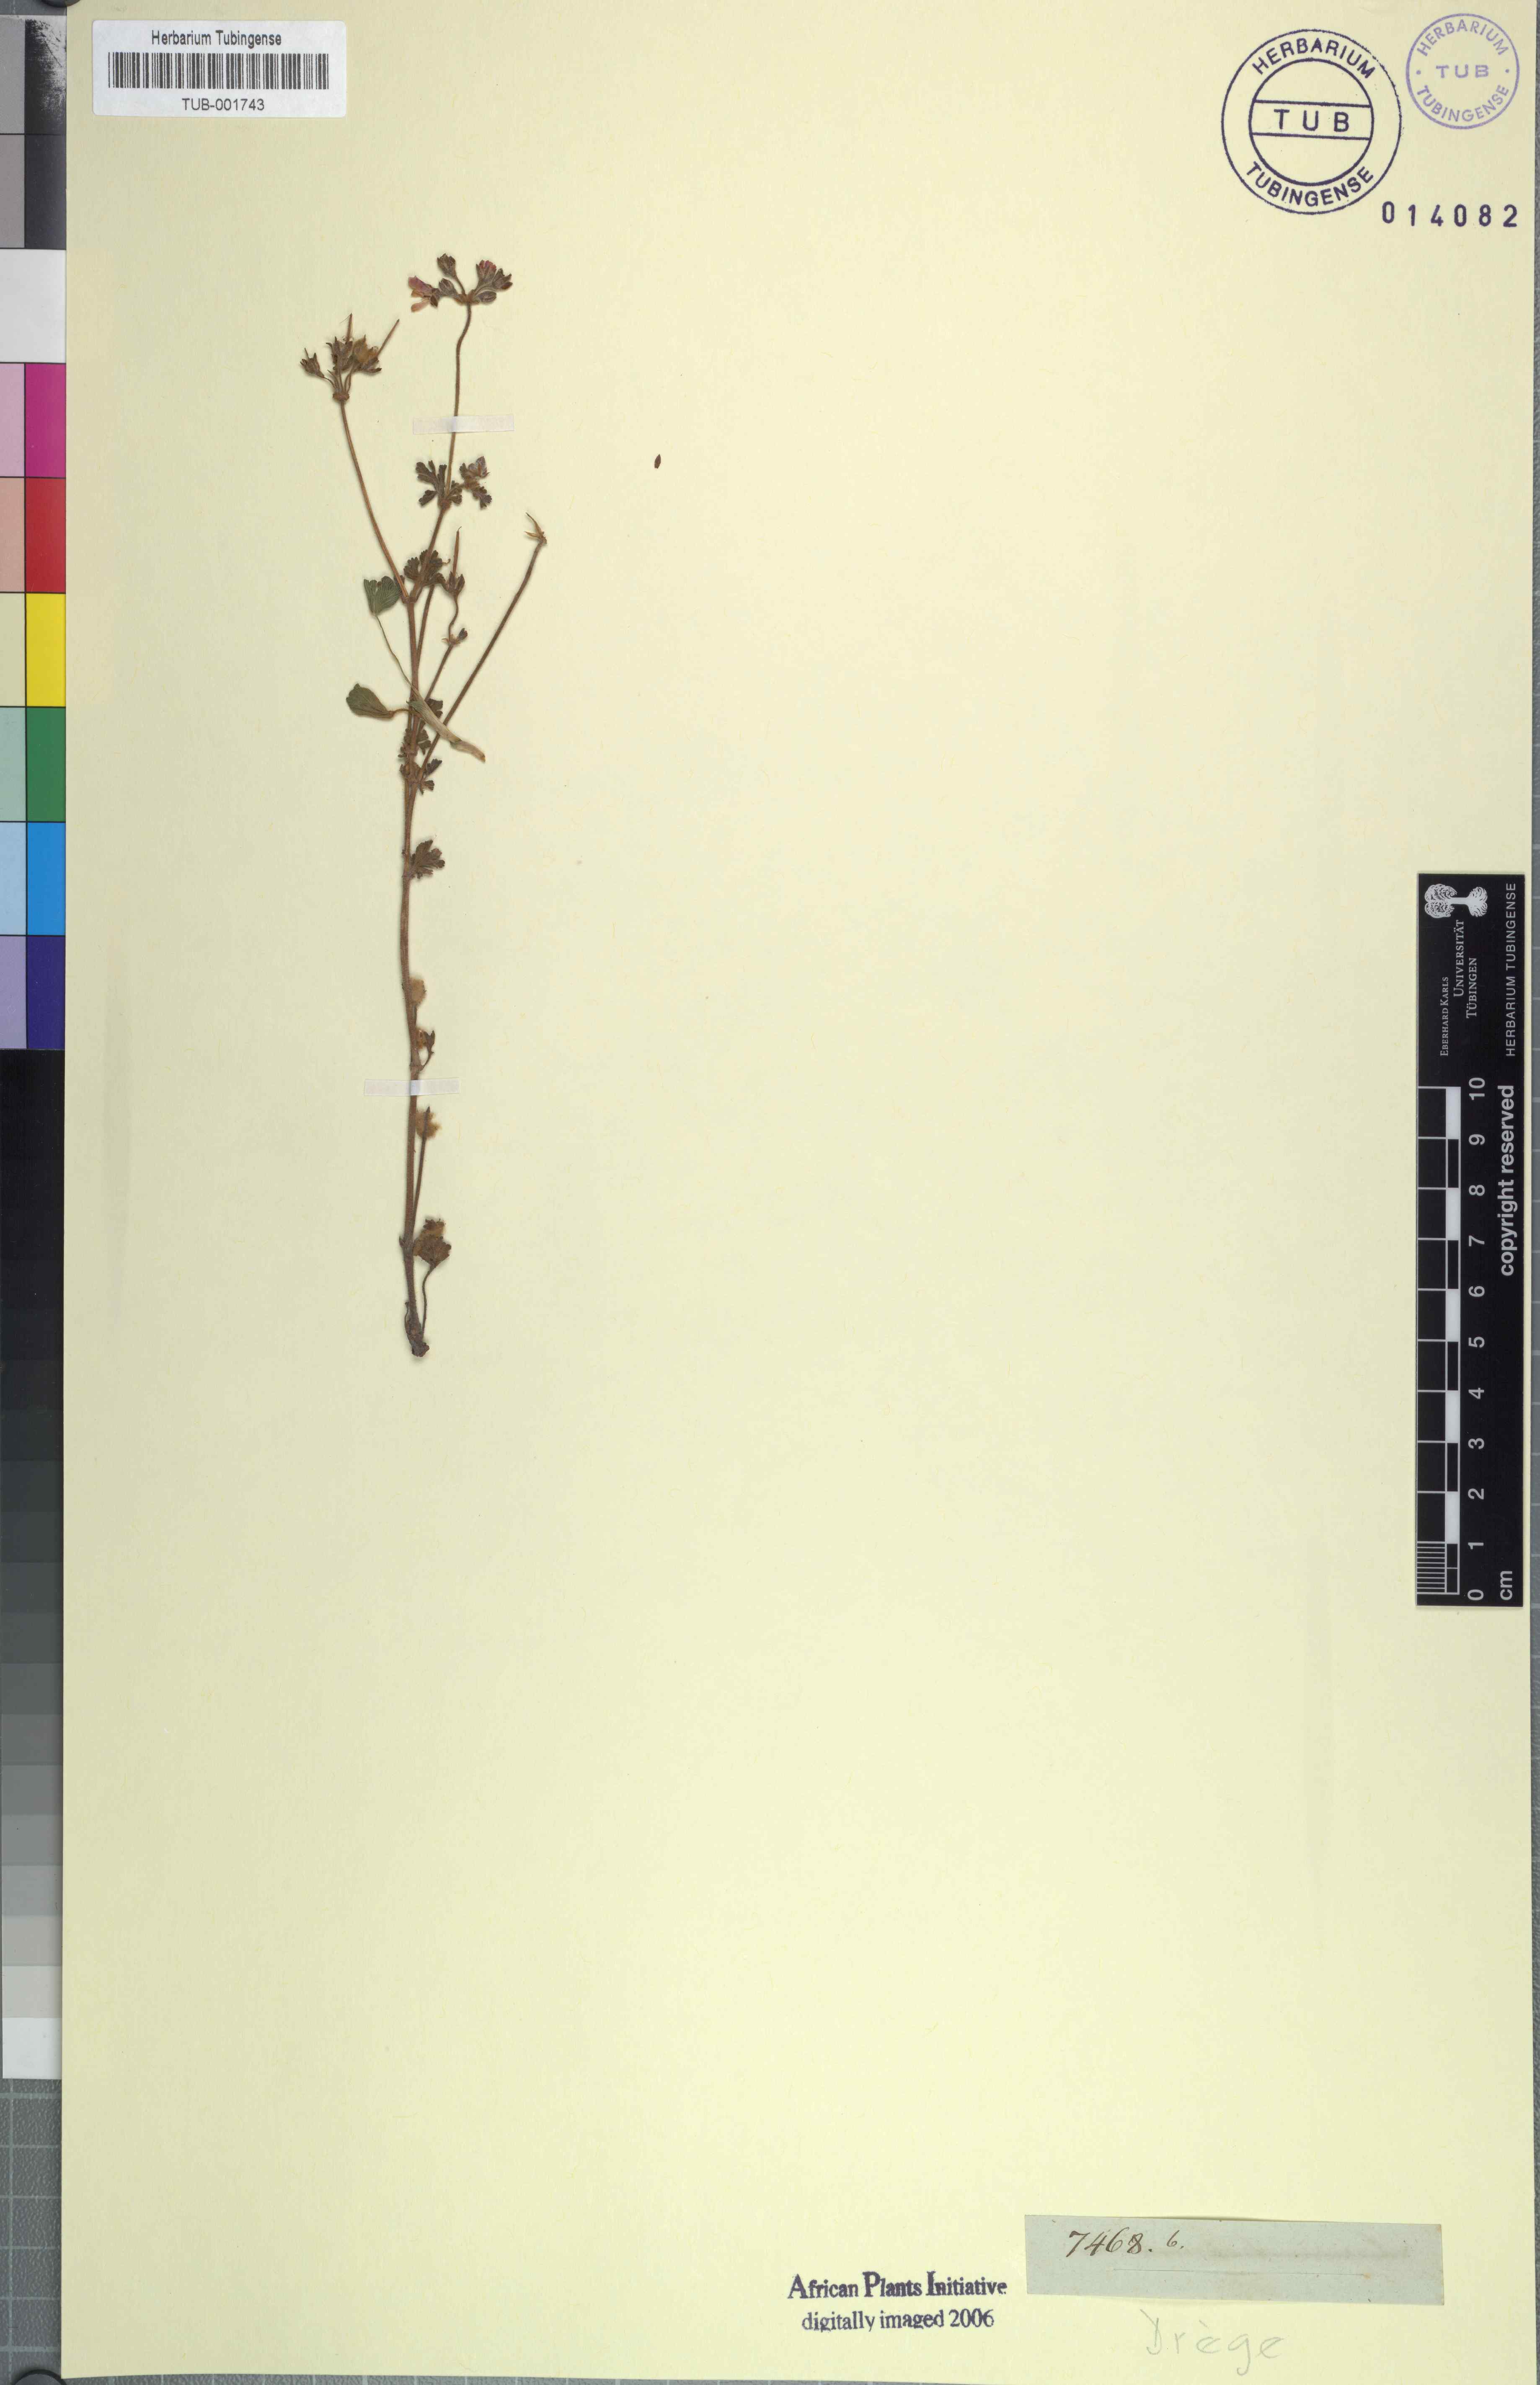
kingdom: Plantae
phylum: Tracheophyta
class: Magnoliopsida
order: Geraniales
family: Geraniaceae
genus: Pelargonium
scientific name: Pelargonium
